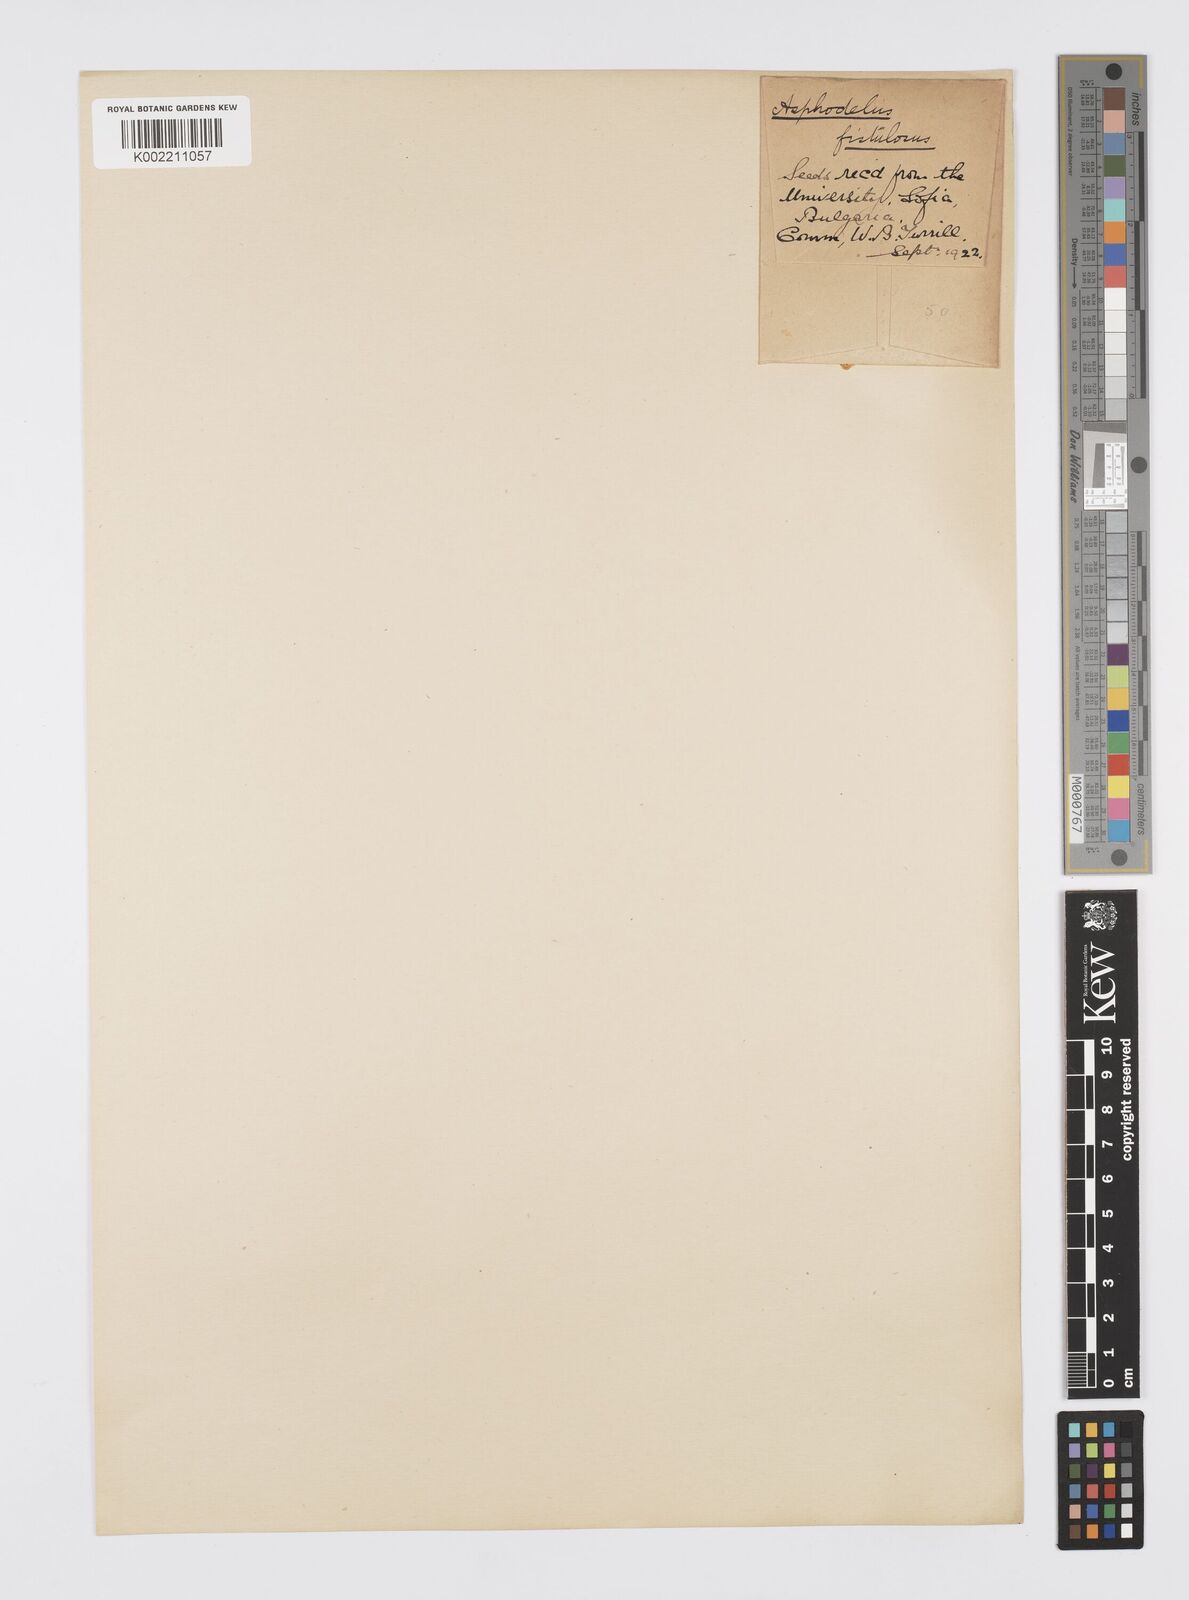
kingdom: Plantae
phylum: Tracheophyta
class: Liliopsida
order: Asparagales
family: Asphodelaceae
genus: Asphodelus
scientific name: Asphodelus fistulosus
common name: Onionweed
